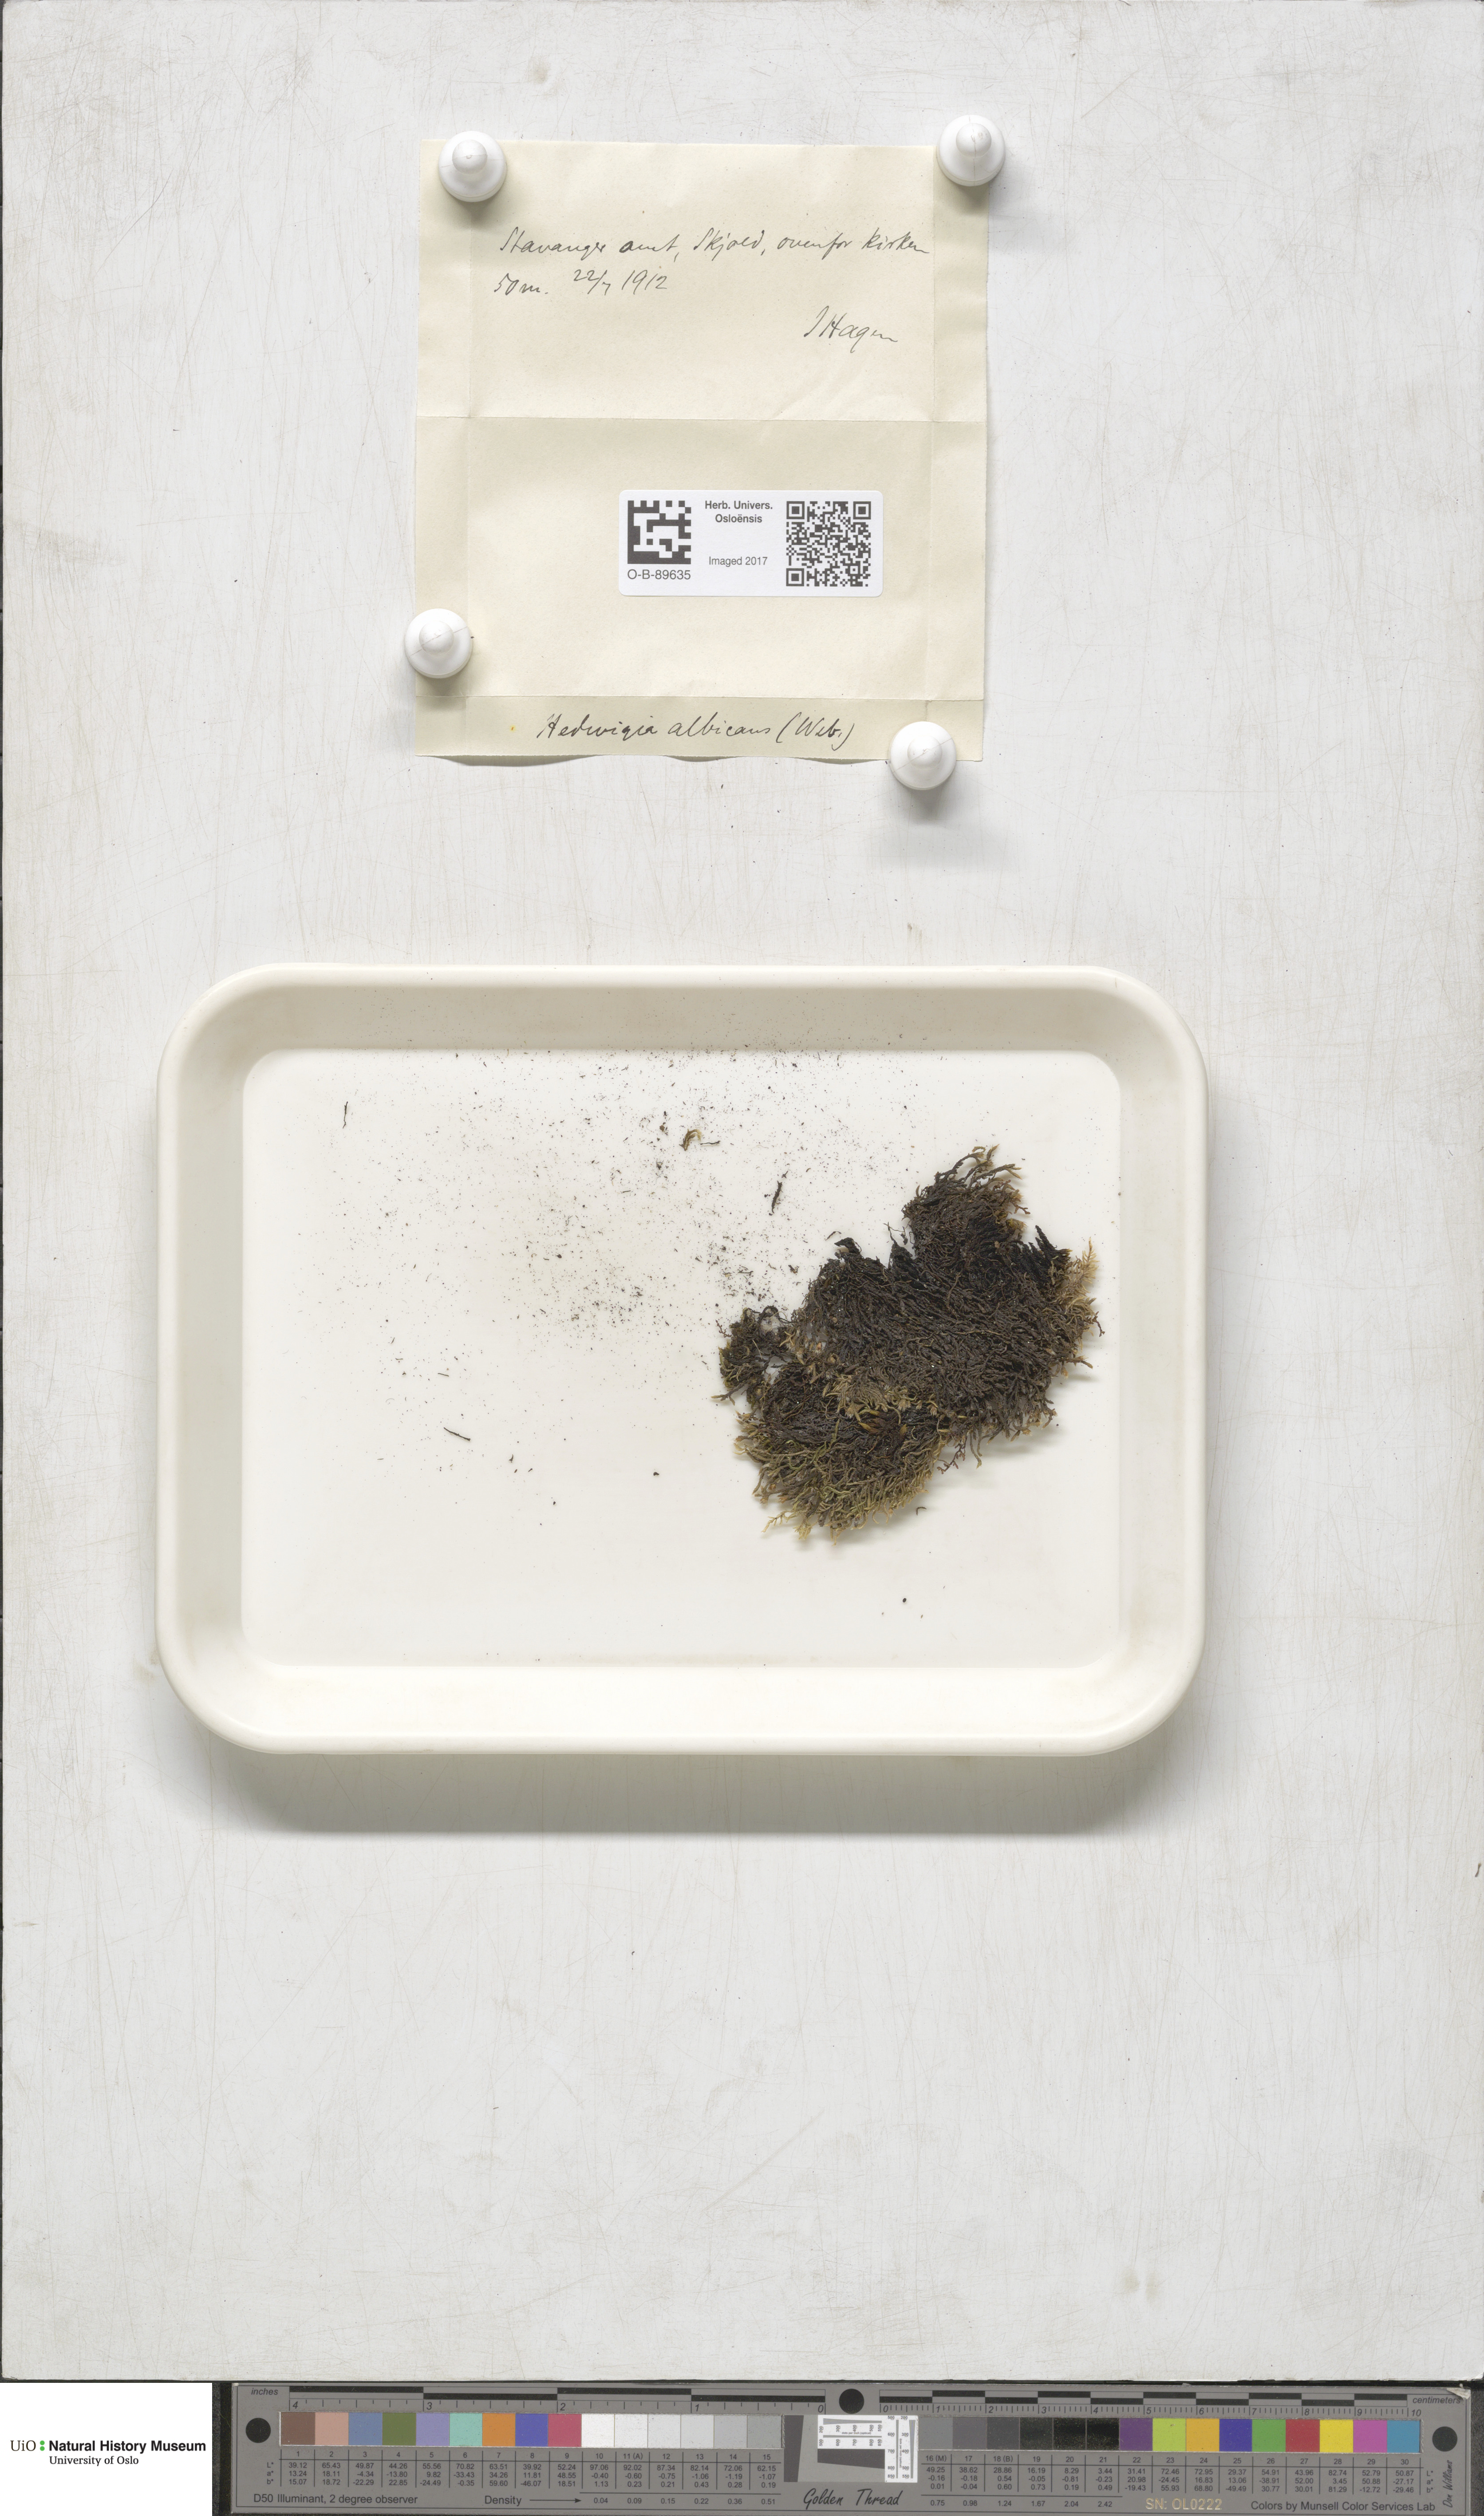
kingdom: Plantae
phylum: Bryophyta
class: Bryopsida
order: Hedwigiales
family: Hedwigiaceae
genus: Hedwigia
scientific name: Hedwigia ciliata
